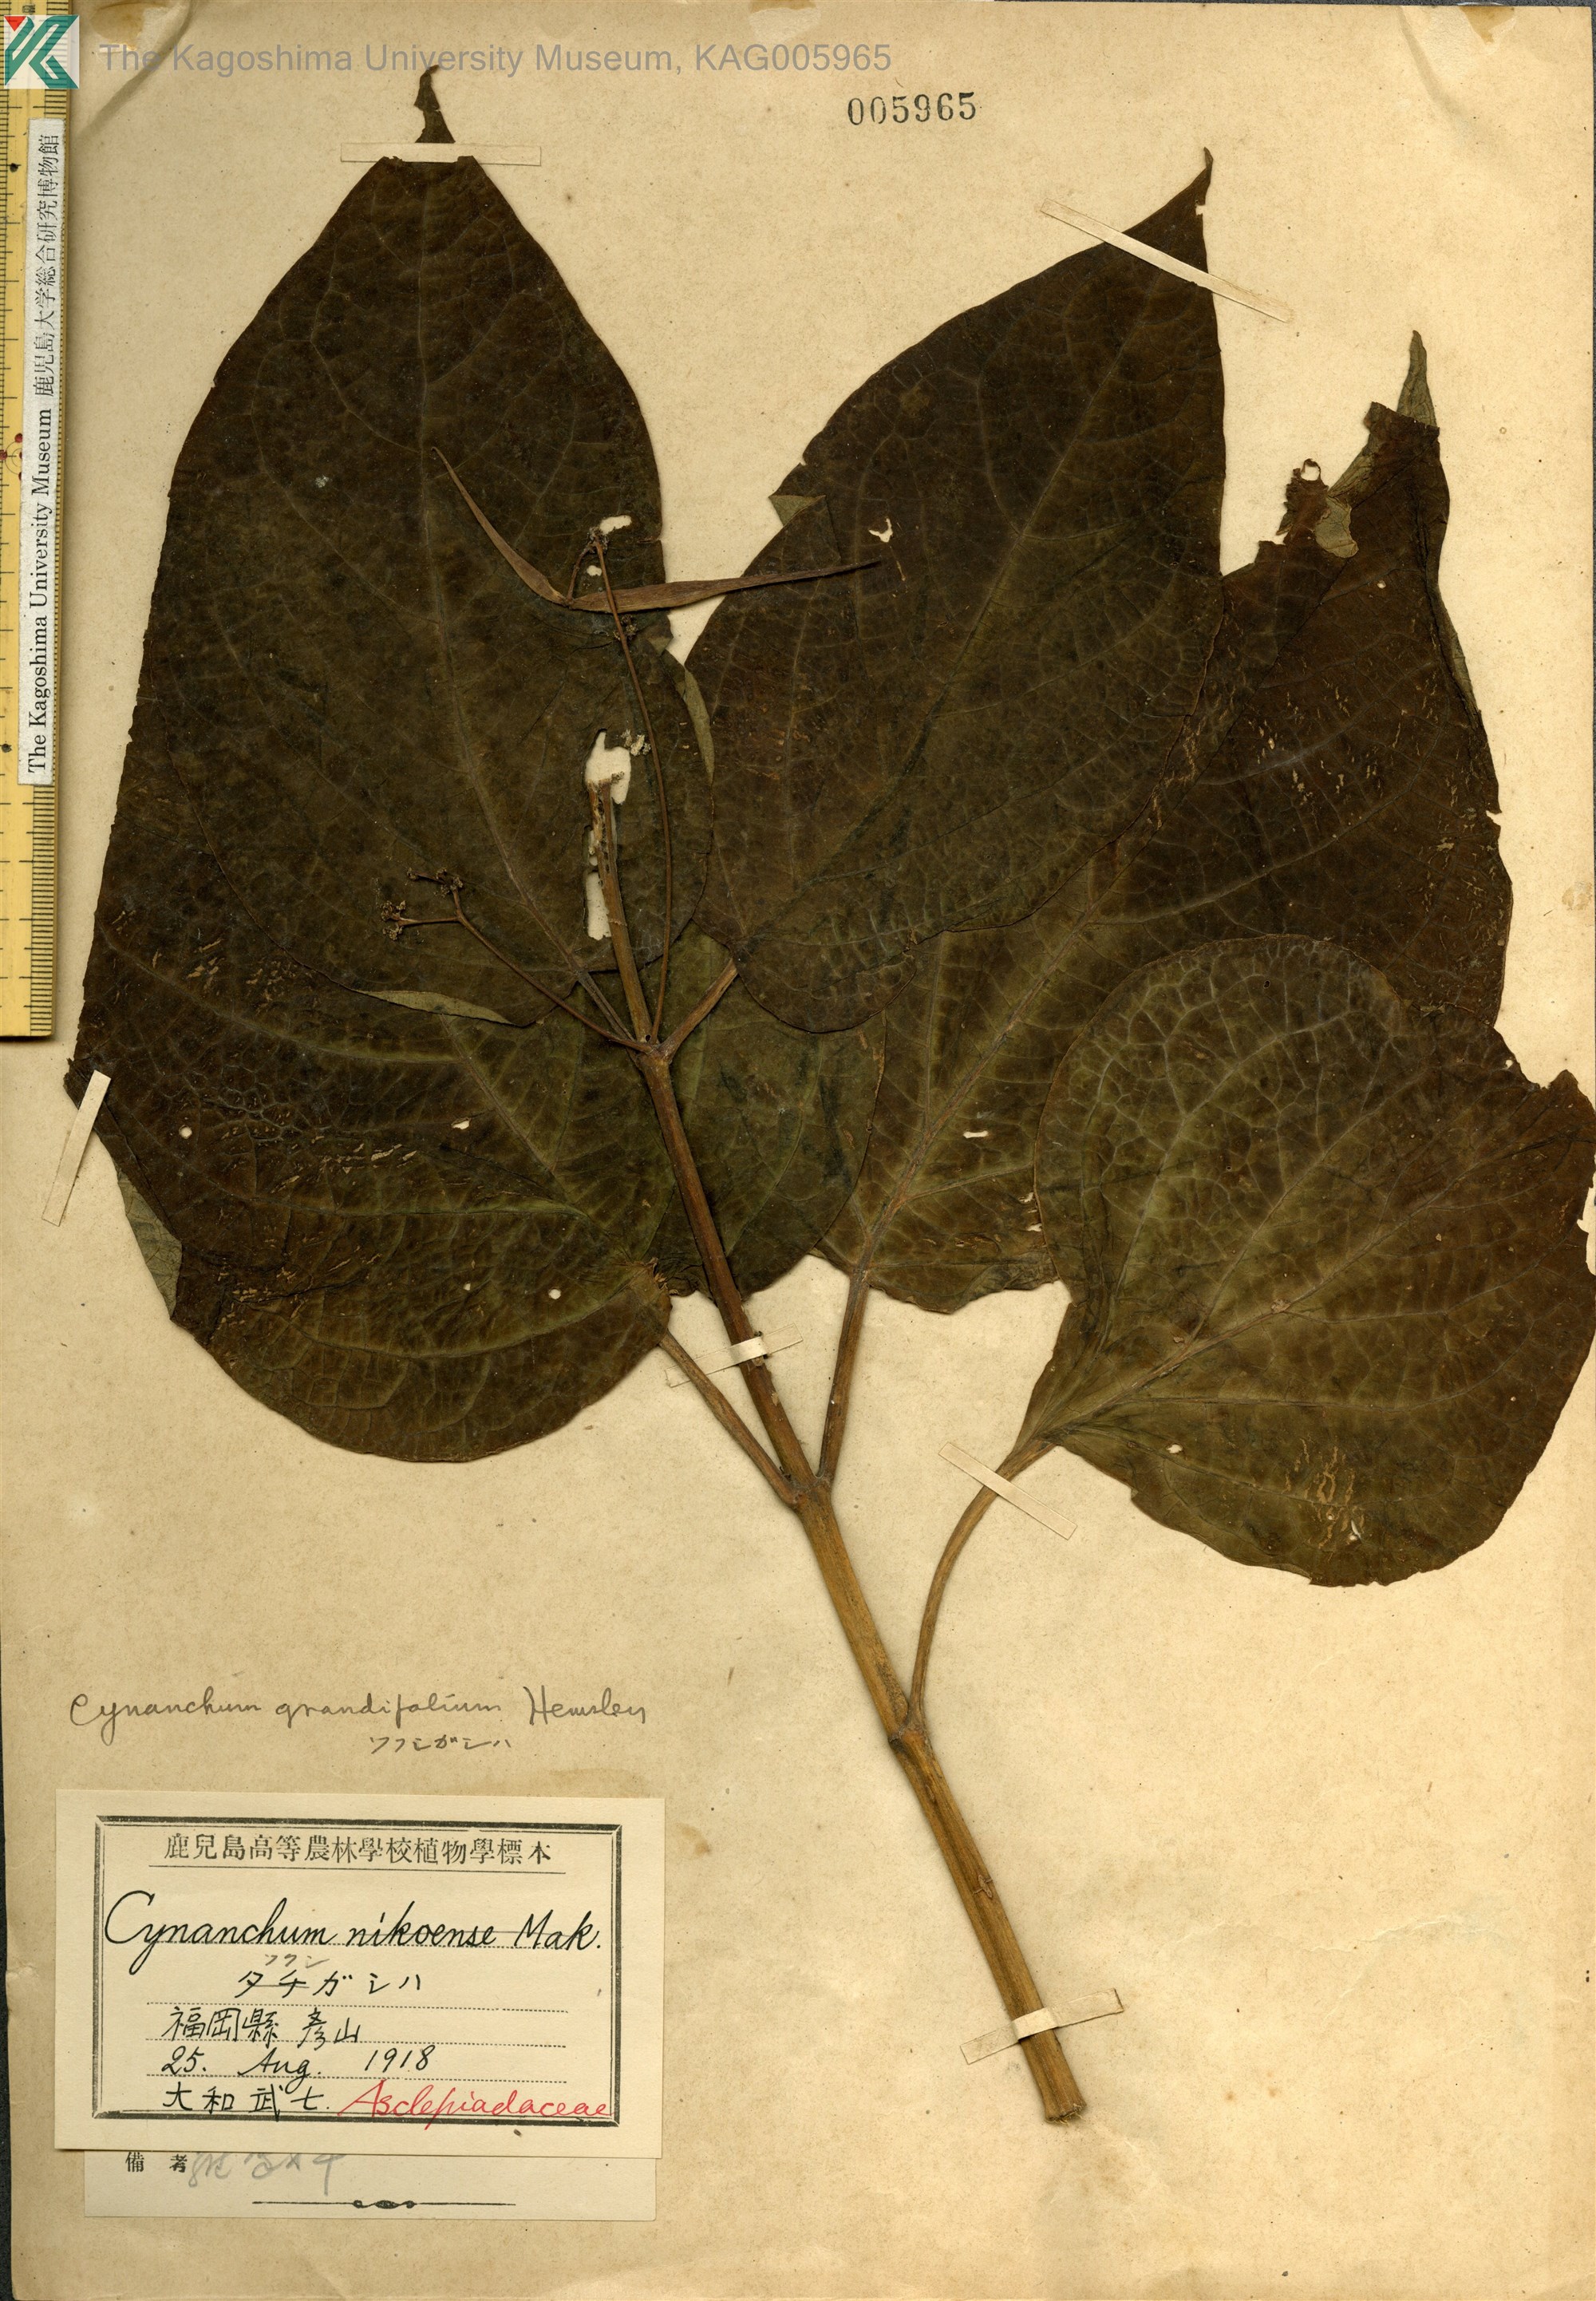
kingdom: Plantae
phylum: Tracheophyta
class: Magnoliopsida
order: Gentianales
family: Apocynaceae
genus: Vincetoxicum
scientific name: Vincetoxicum macrophyllum
